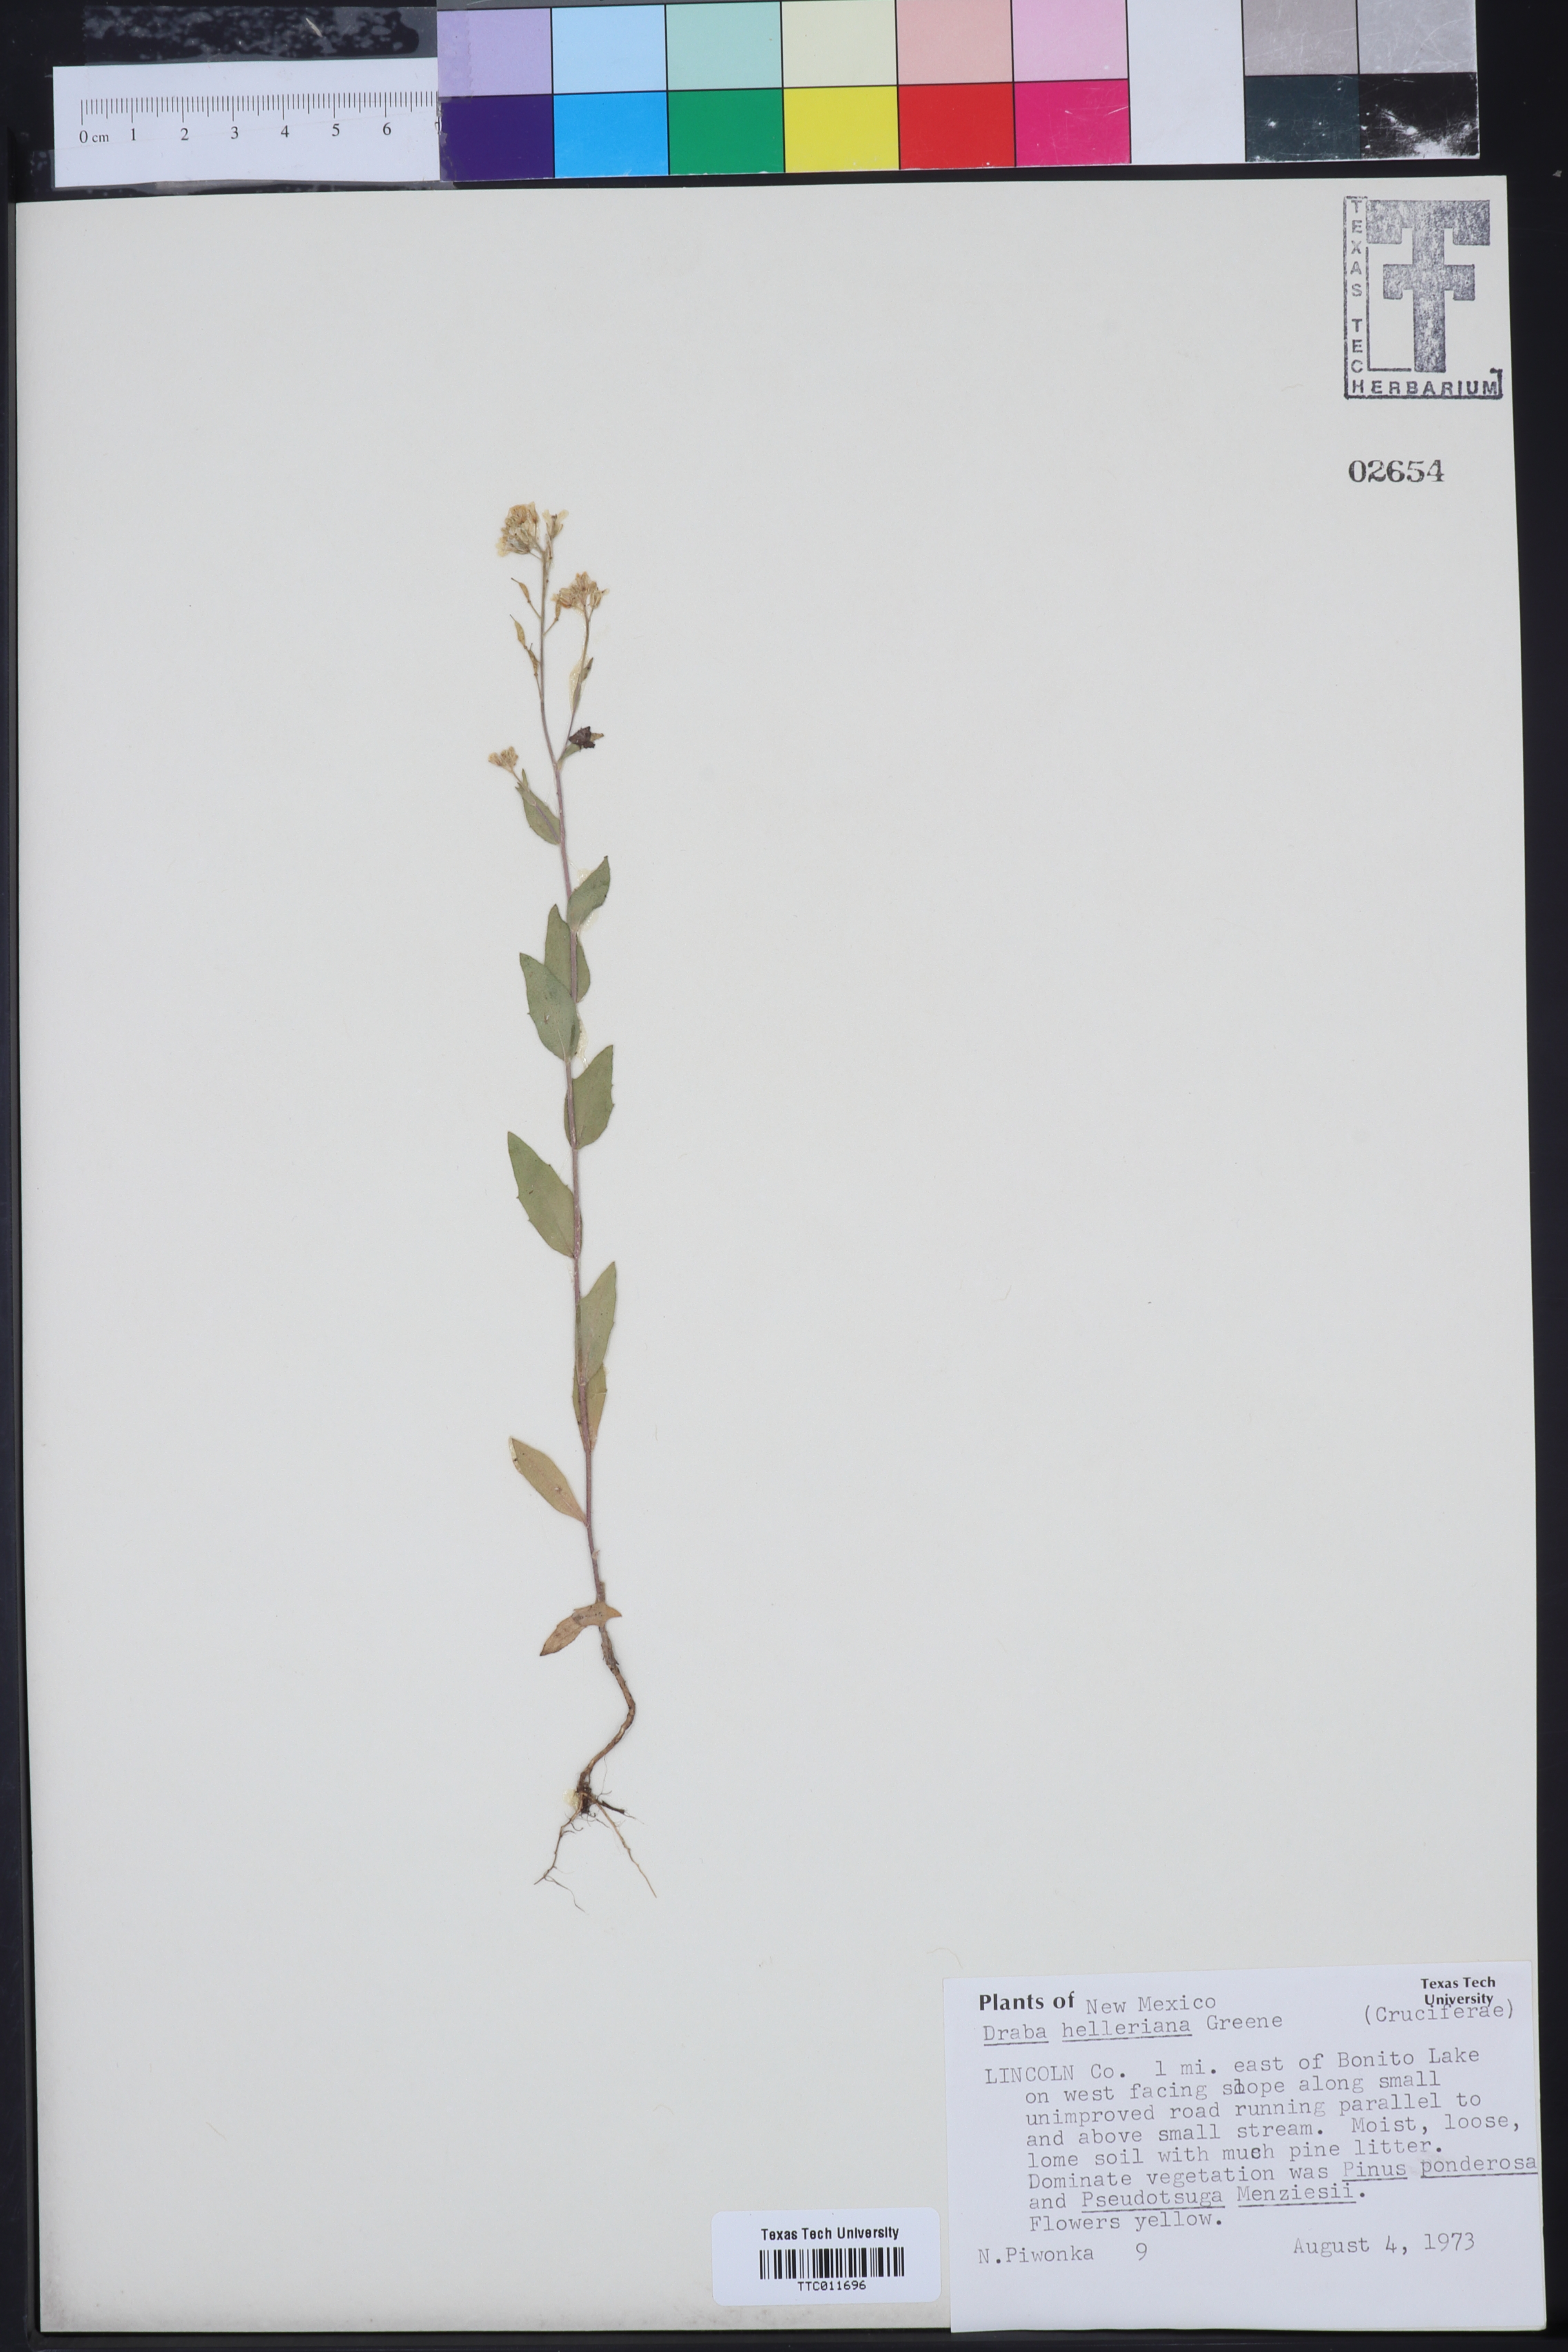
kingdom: Plantae
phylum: Tracheophyta
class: Magnoliopsida
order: Brassicales
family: Brassicaceae
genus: Draba
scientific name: Draba helleriana
